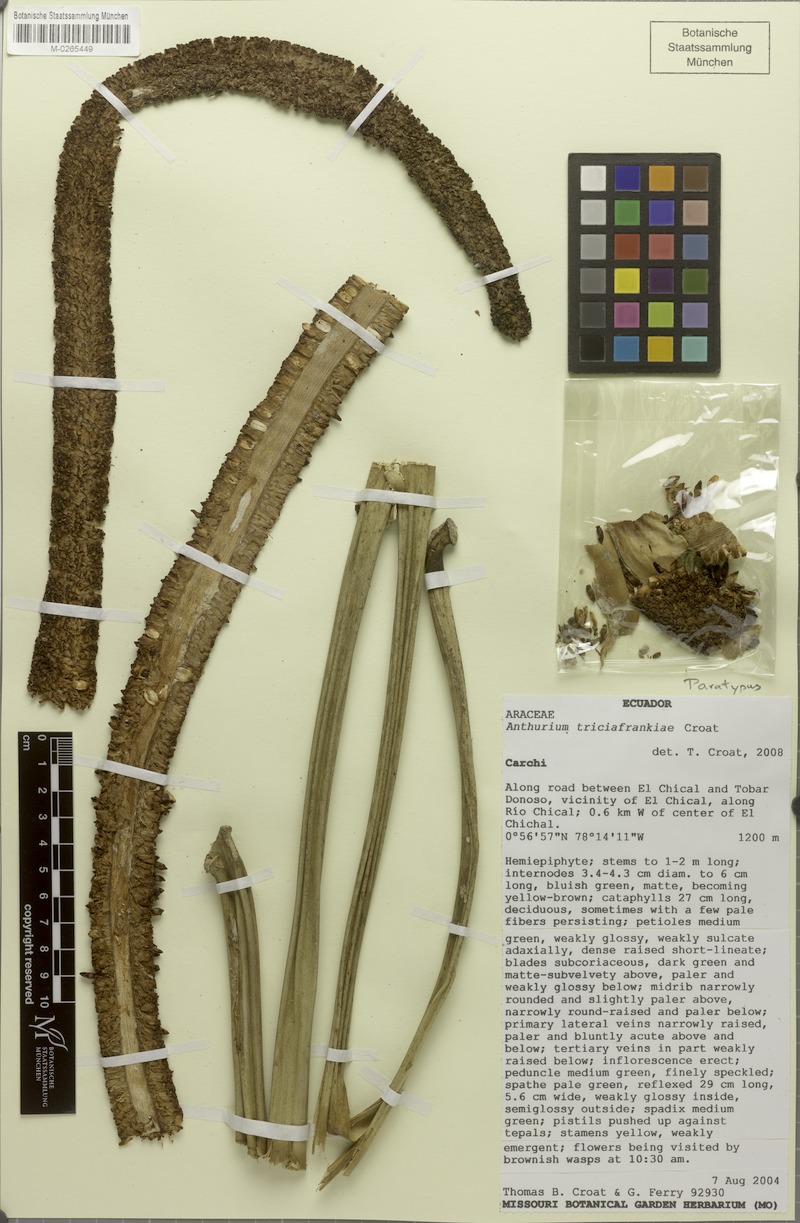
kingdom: Plantae
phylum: Tracheophyta
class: Liliopsida
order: Alismatales
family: Araceae
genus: Anthurium
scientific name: Anthurium triciafrankiae
